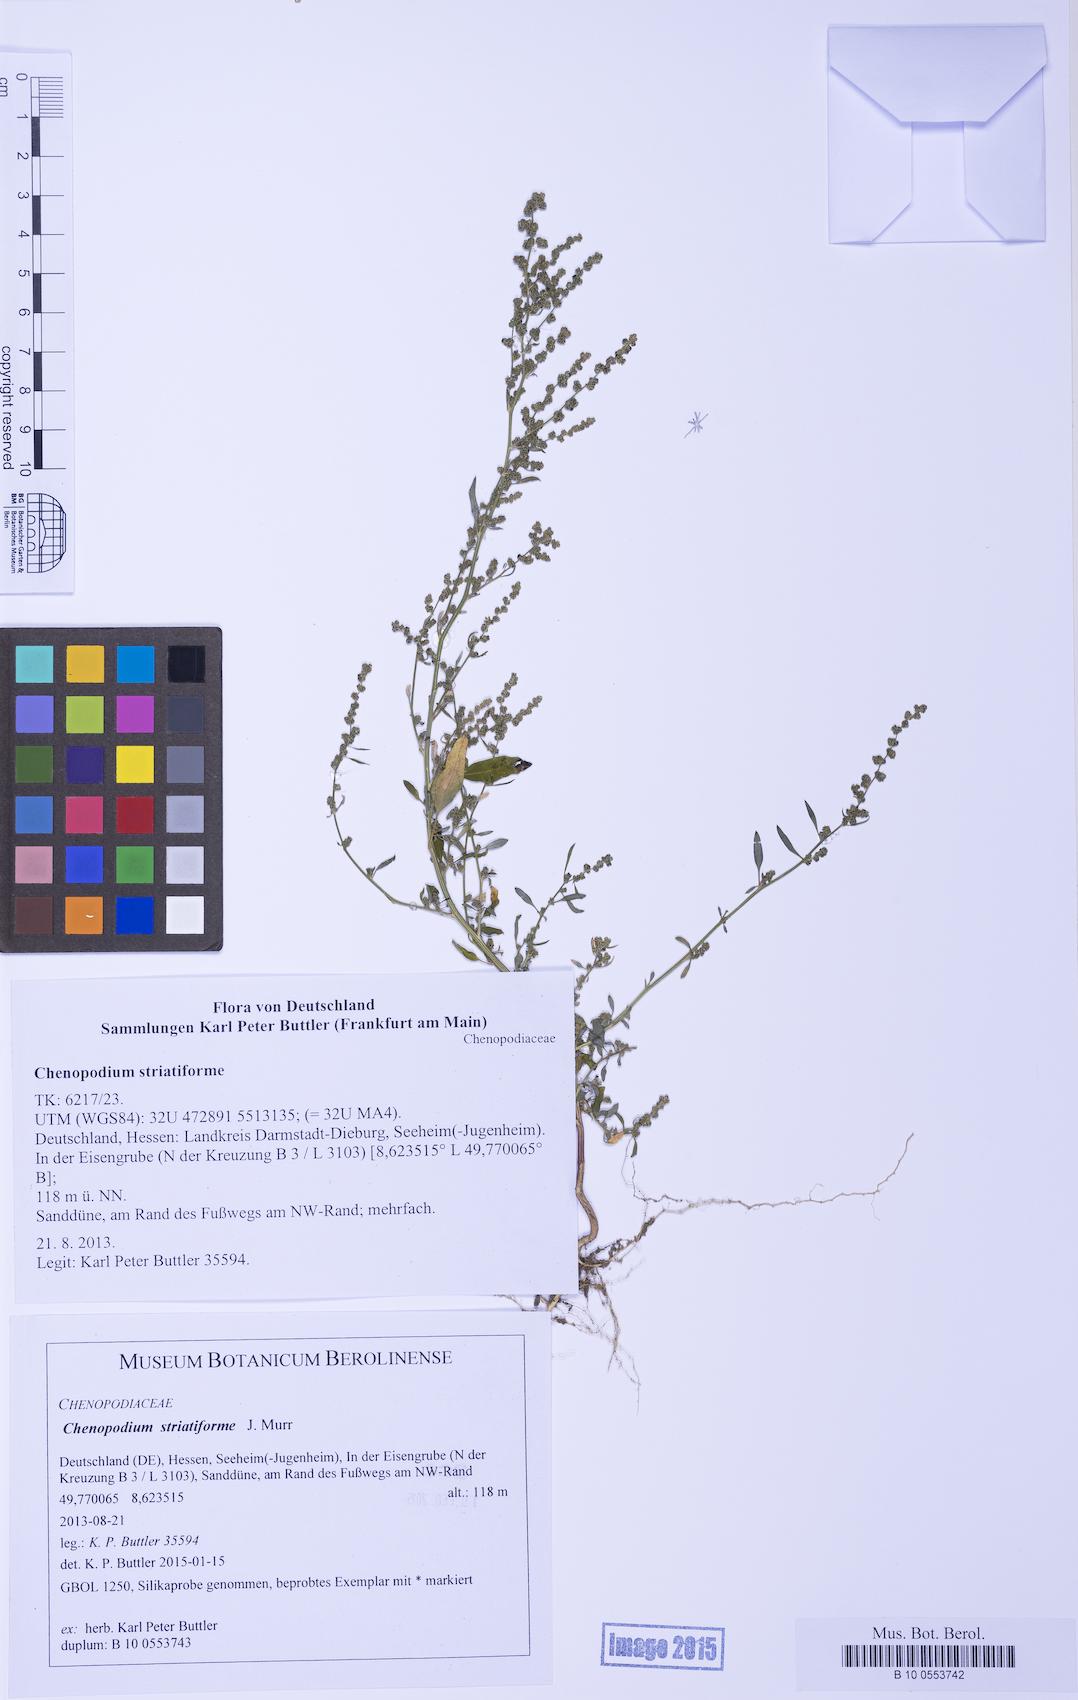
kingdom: Plantae
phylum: Tracheophyta
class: Magnoliopsida
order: Caryophyllales
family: Amaranthaceae
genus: Chenopodium
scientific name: Chenopodium striatiforme
